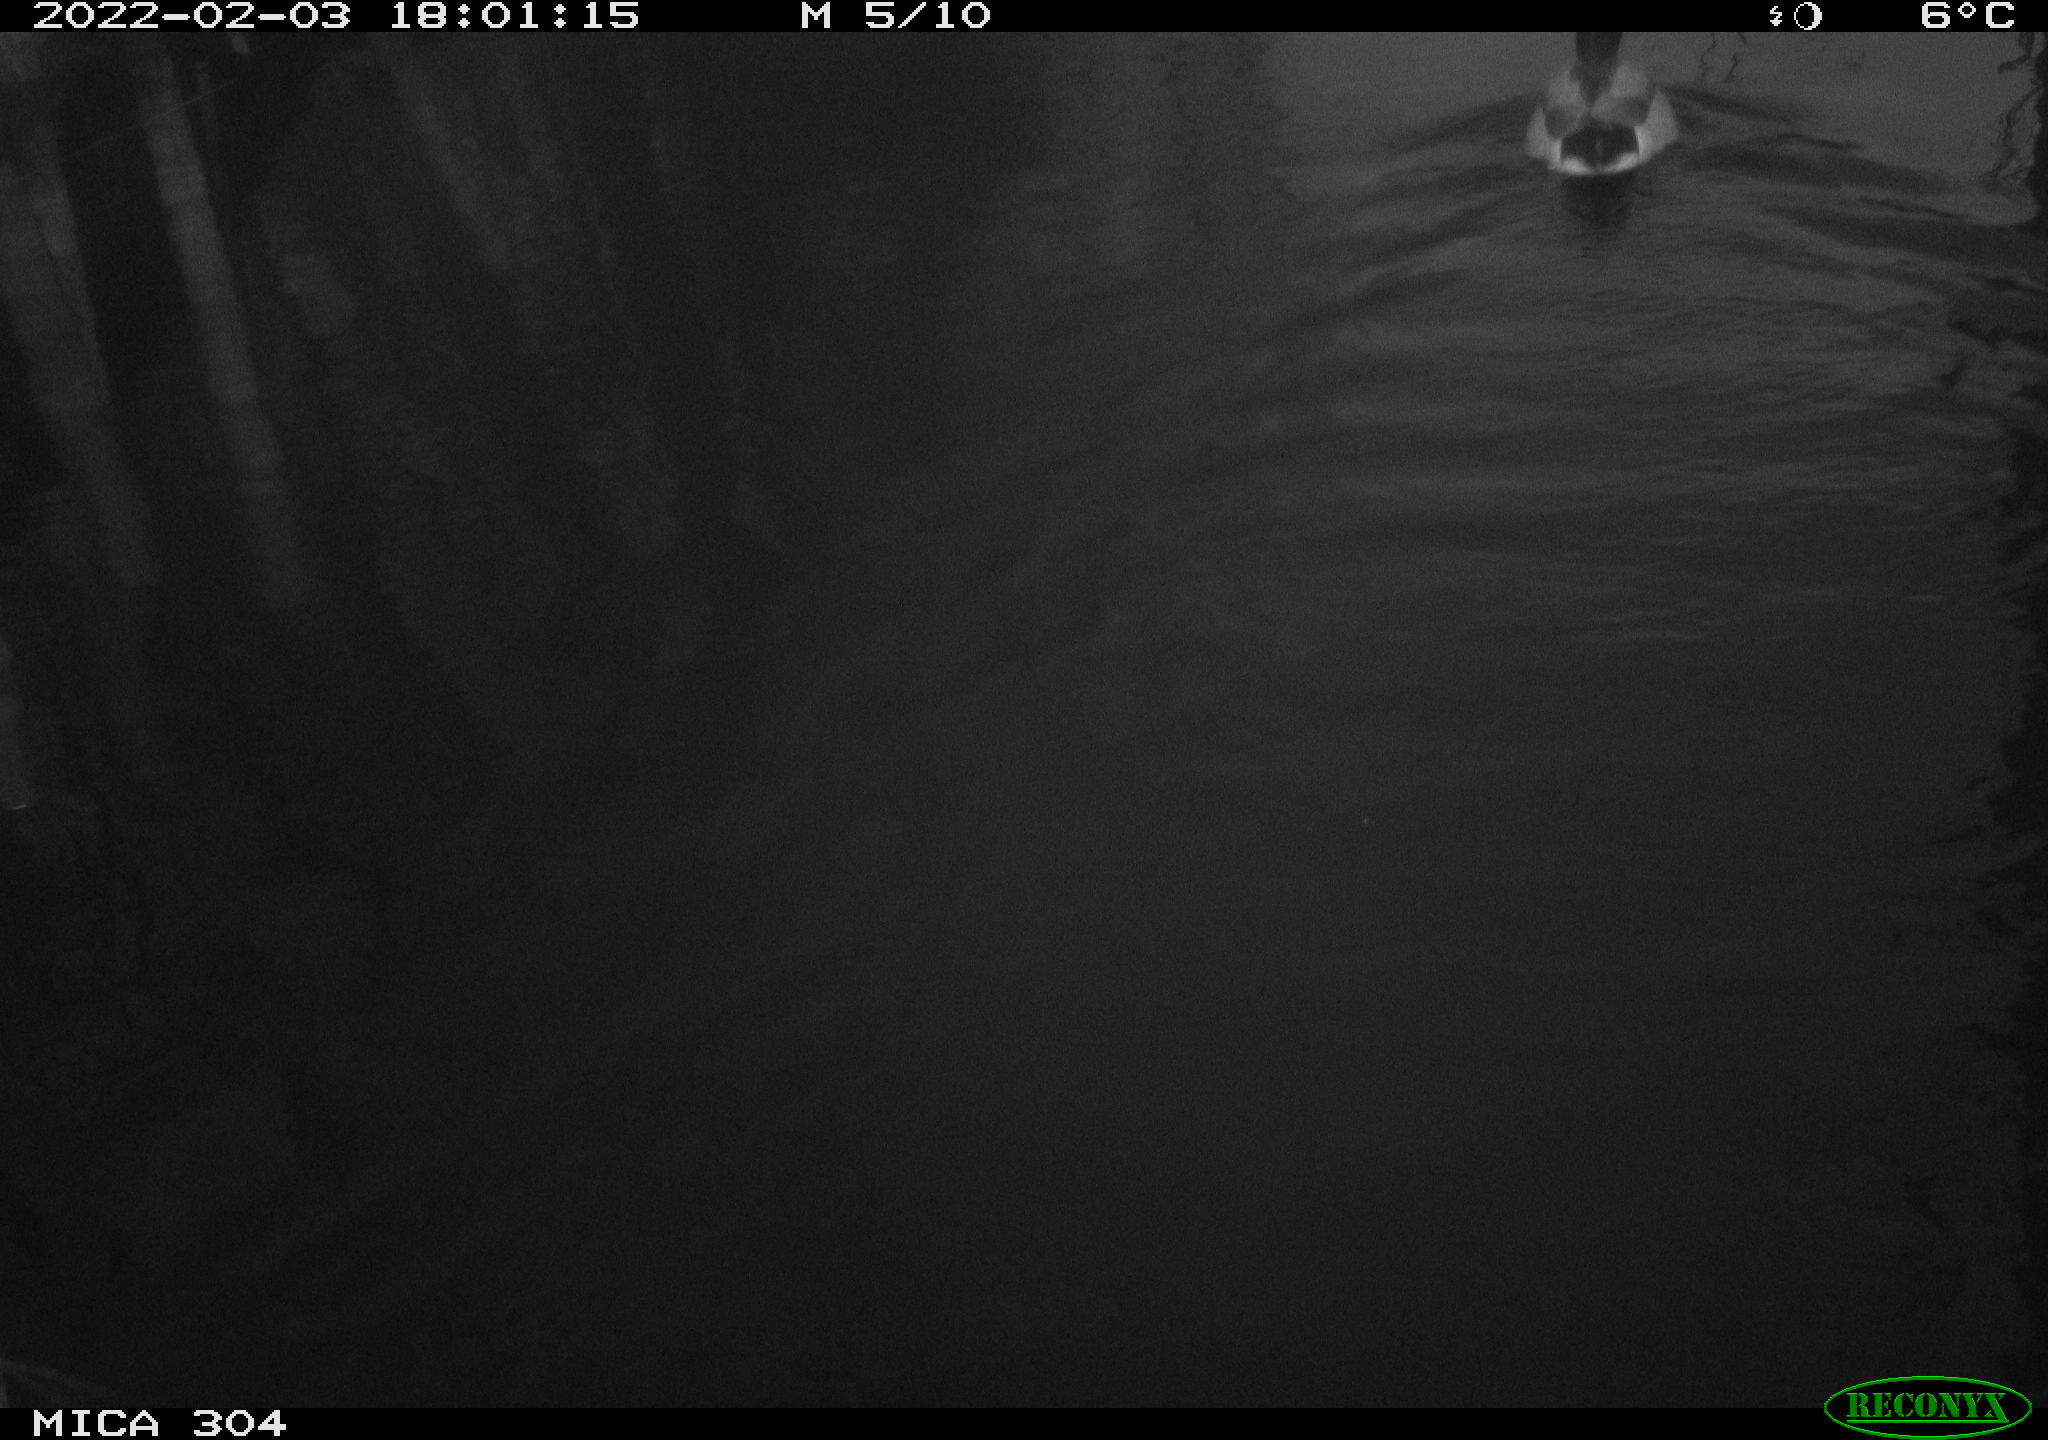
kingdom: Animalia
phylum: Chordata
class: Aves
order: Anseriformes
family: Anatidae
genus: Anas
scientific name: Anas platyrhynchos
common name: Mallard
